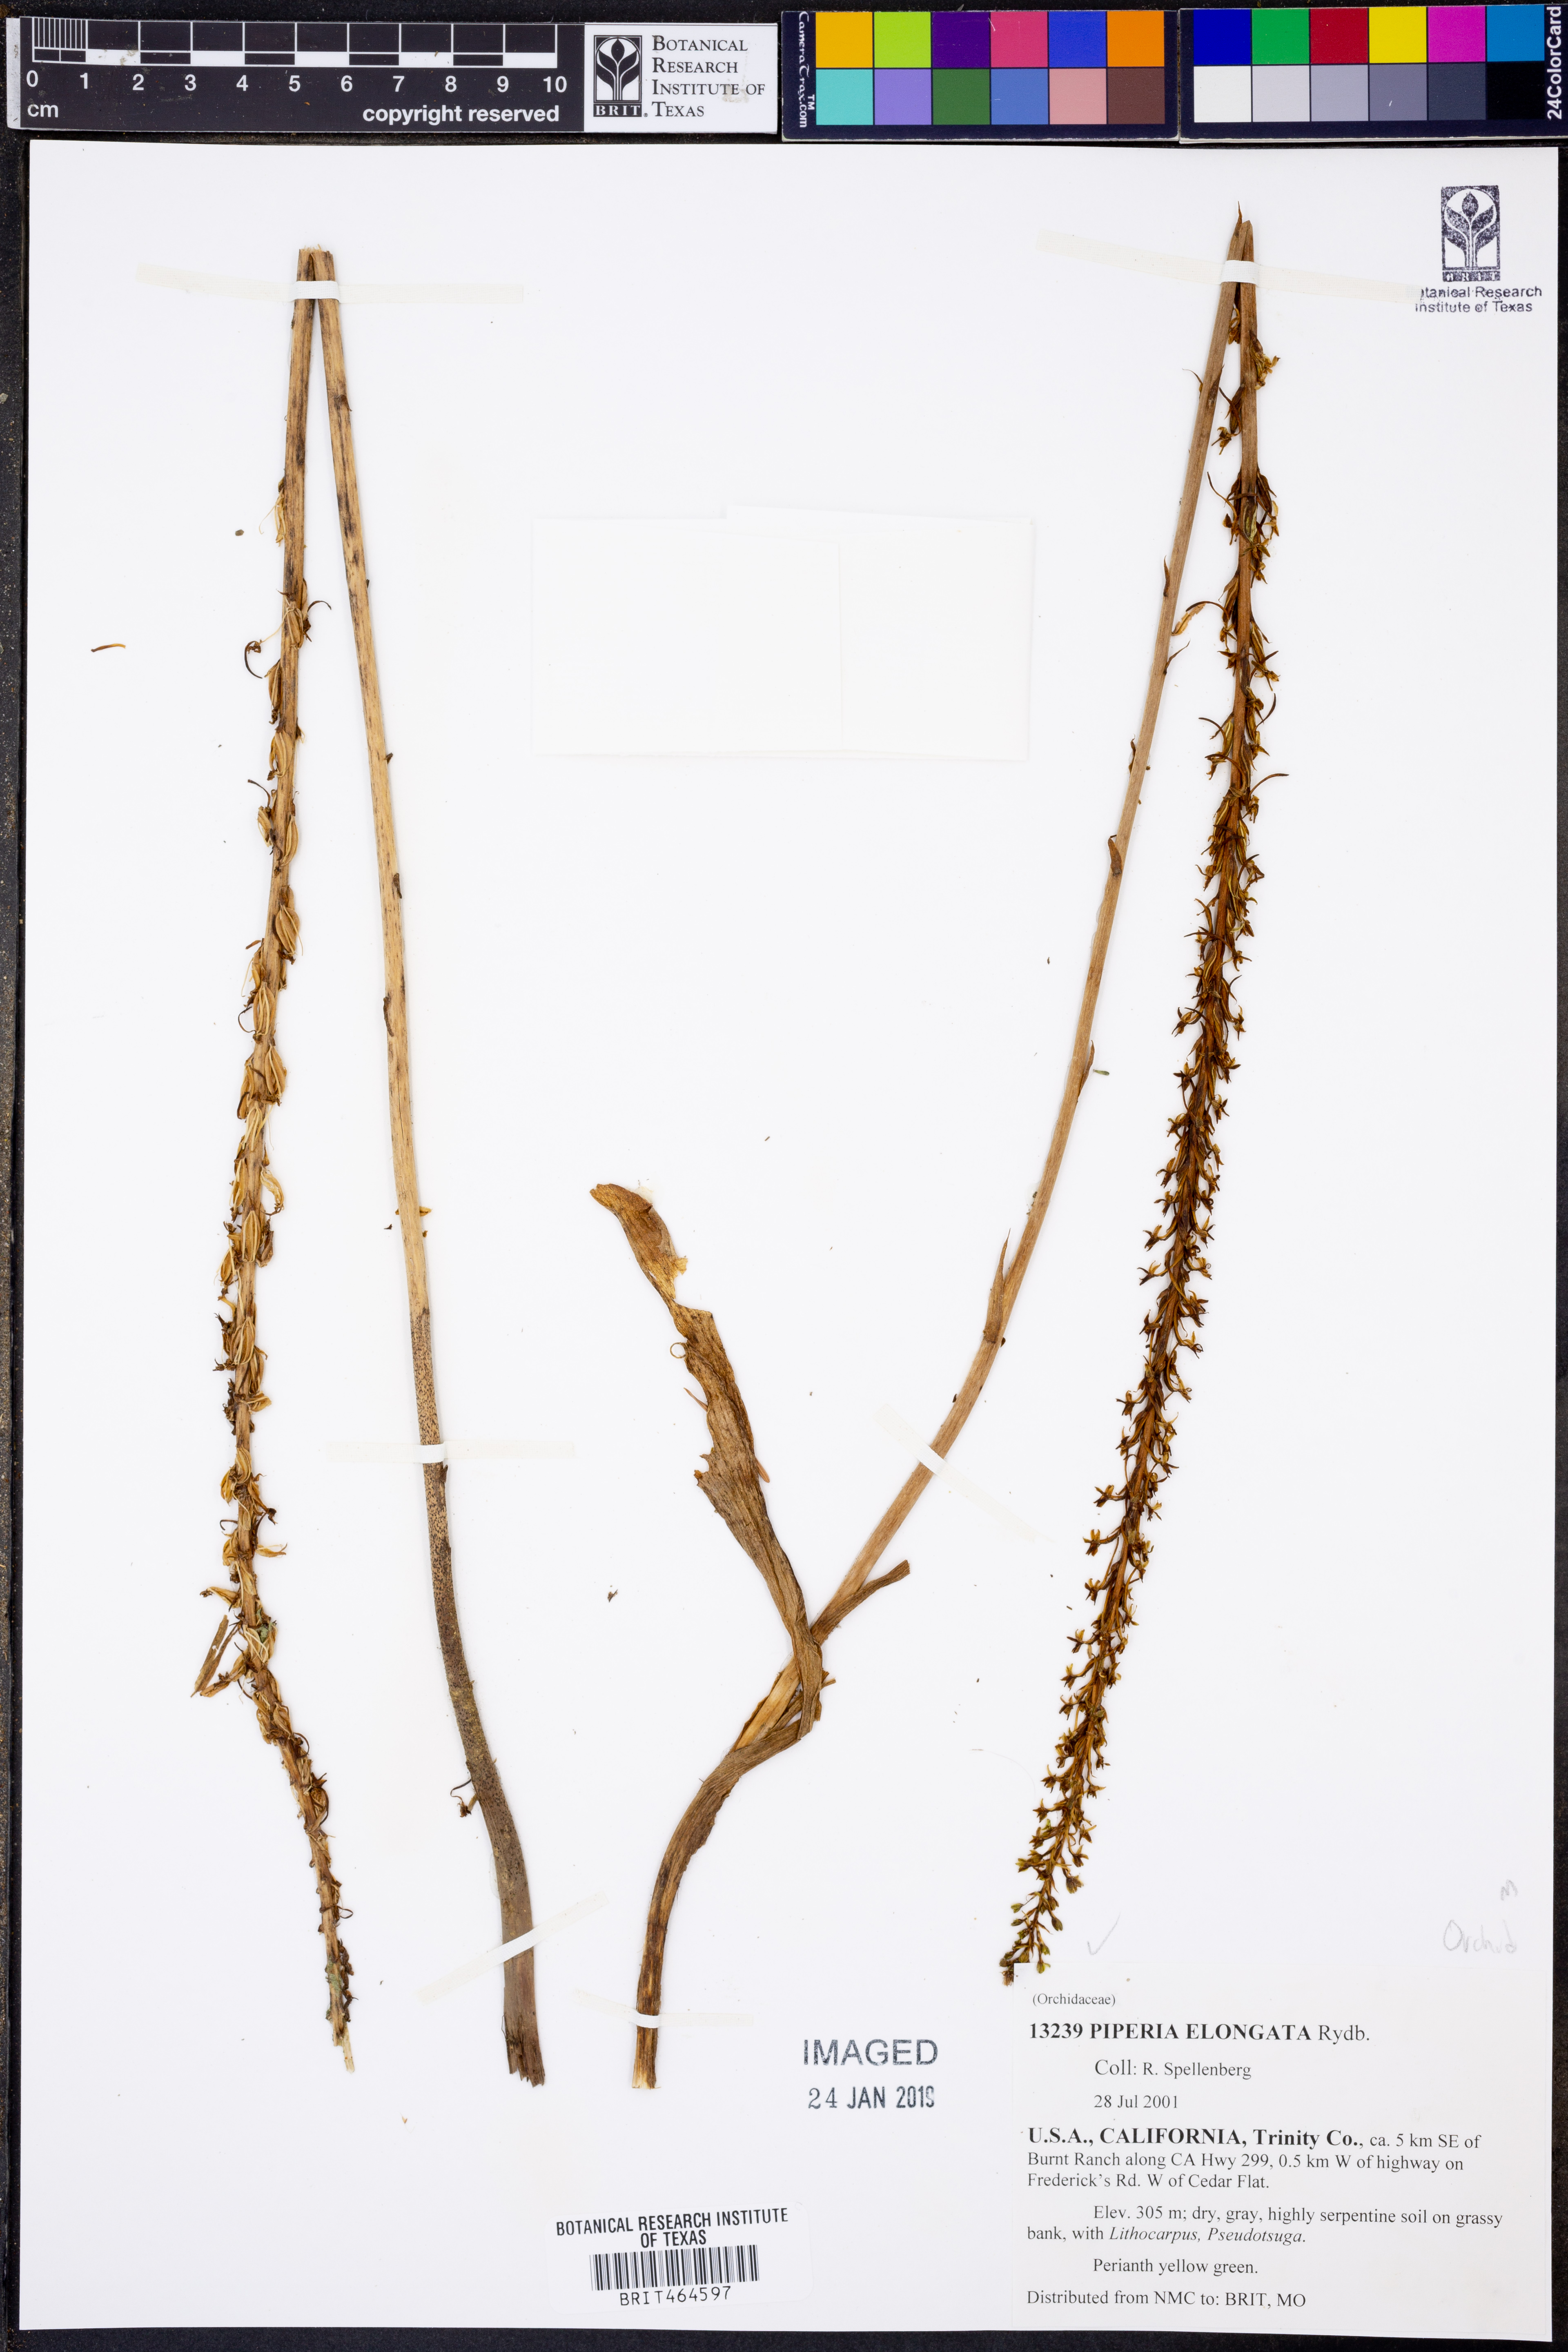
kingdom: Plantae
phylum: Tracheophyta
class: Liliopsida
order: Asparagales
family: Orchidaceae
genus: Platanthera
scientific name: Platanthera elongata
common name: Dense-flowered rein orchid
